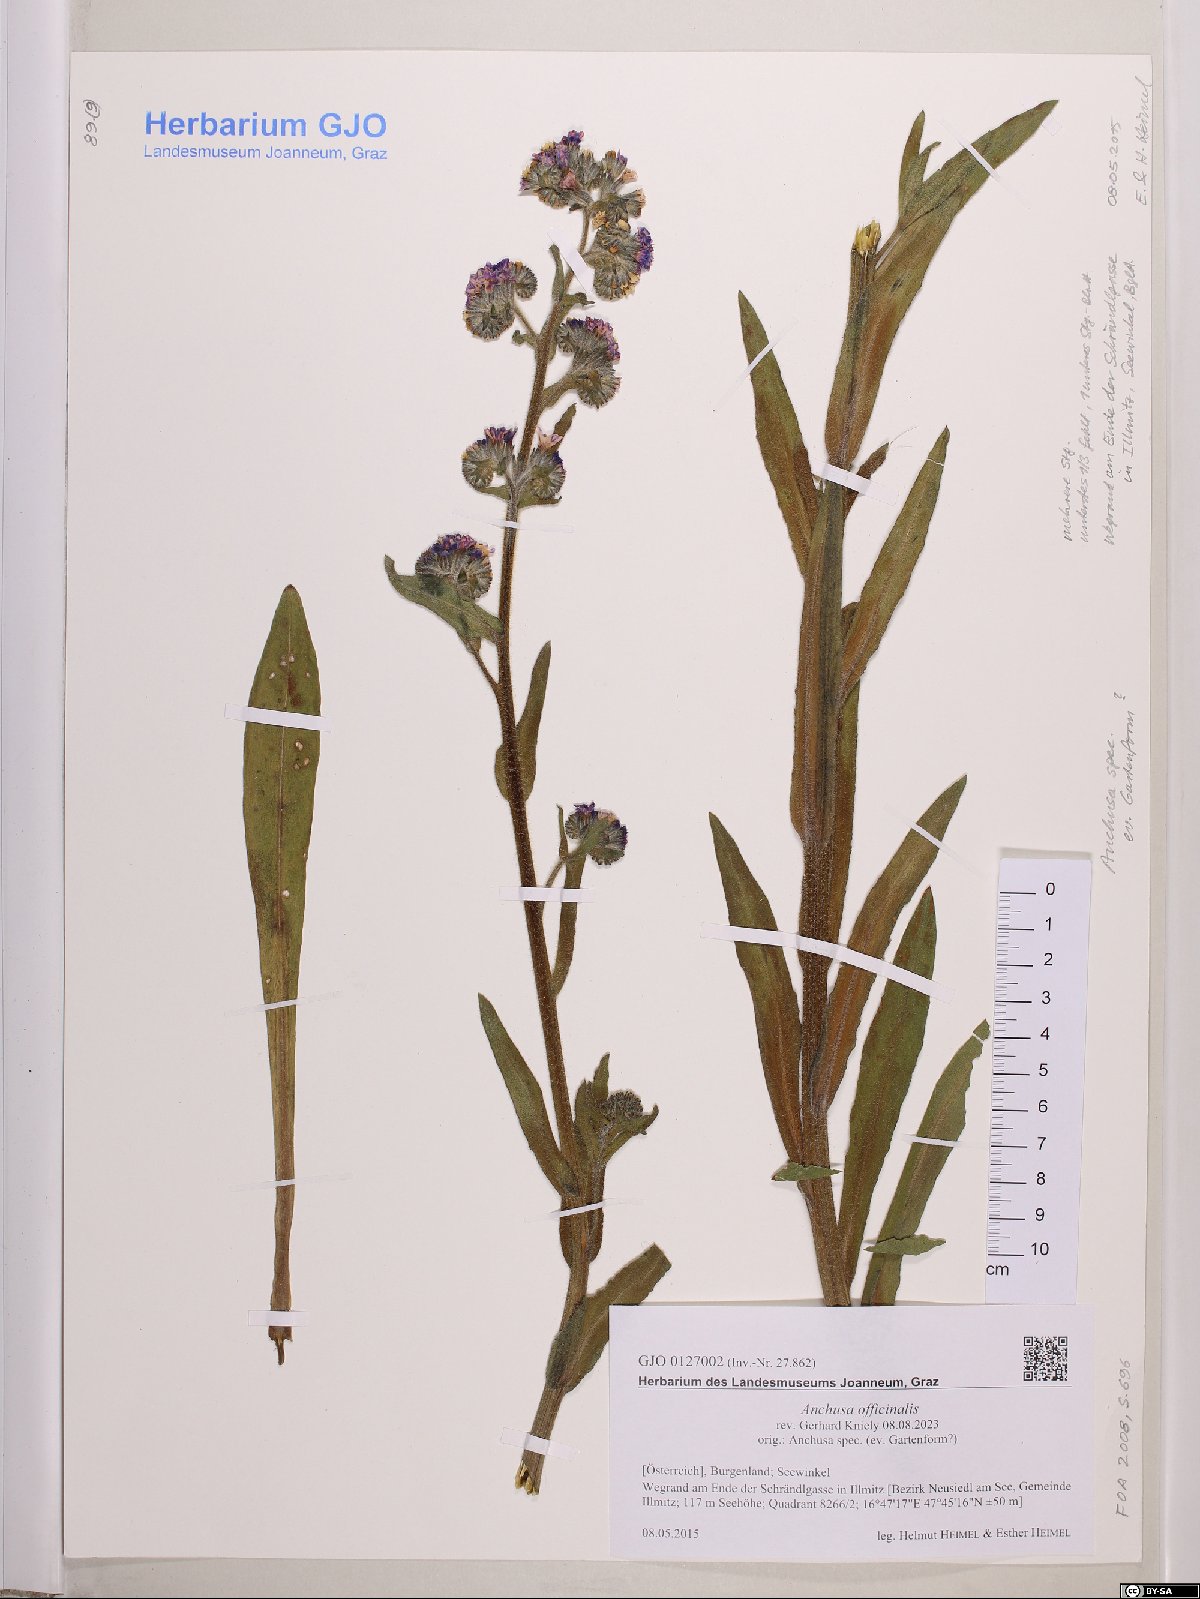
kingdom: Plantae
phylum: Tracheophyta
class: Magnoliopsida
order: Boraginales
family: Boraginaceae
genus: Anchusa
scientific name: Anchusa officinalis
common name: Alkanet
